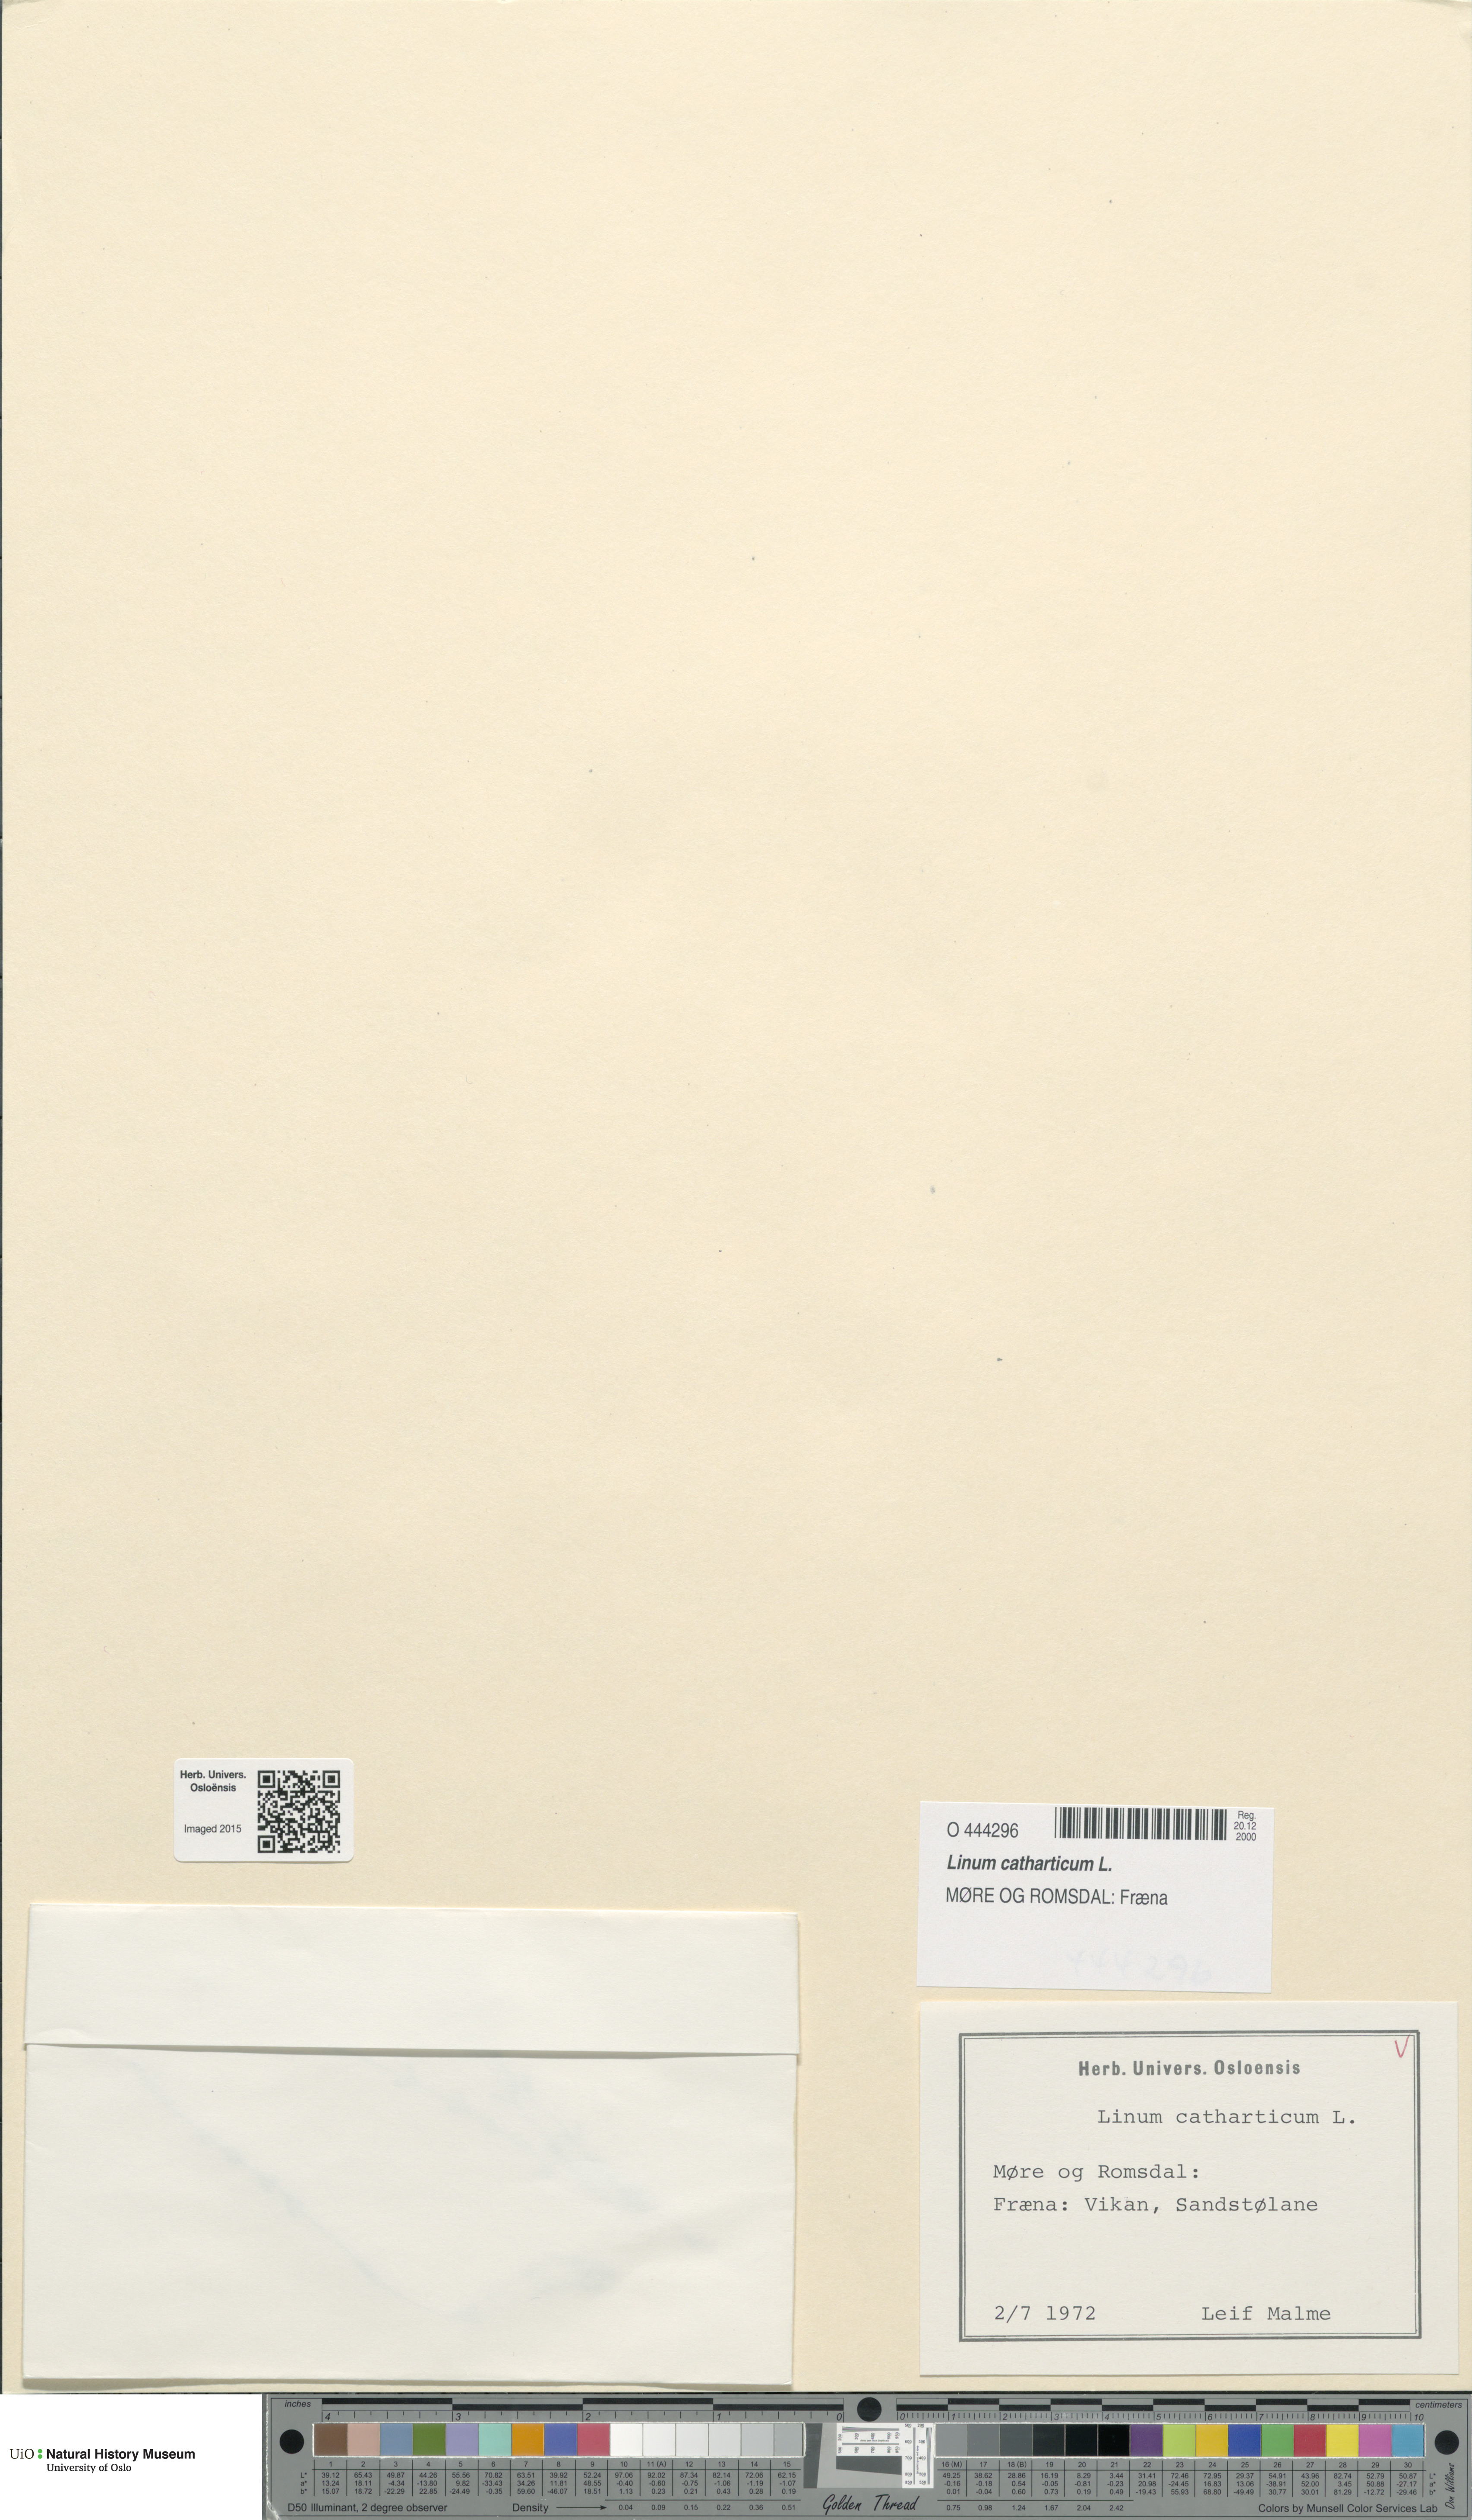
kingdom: Plantae
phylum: Tracheophyta
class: Magnoliopsida
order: Malpighiales
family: Linaceae
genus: Linum
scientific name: Linum catharticum
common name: Fairy flax
